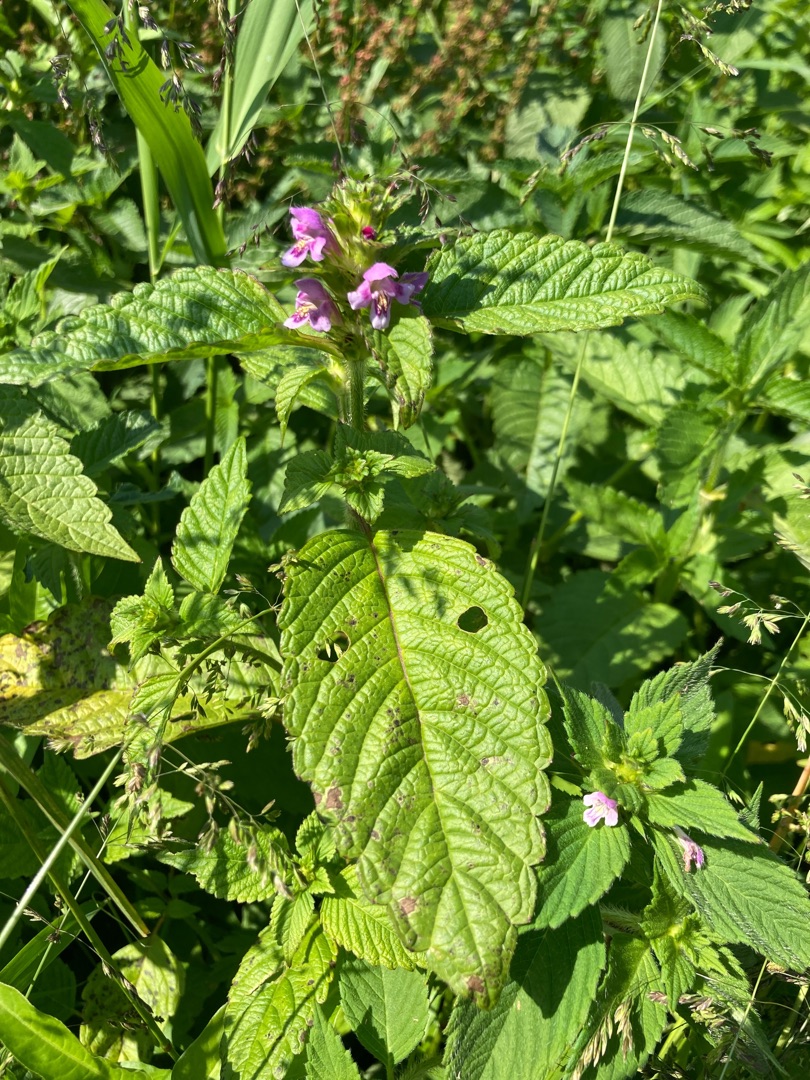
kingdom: Plantae
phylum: Tracheophyta
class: Magnoliopsida
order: Lamiales
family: Lamiaceae
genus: Galeopsis
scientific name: Galeopsis tetrahit
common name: Almindelig hanekro
